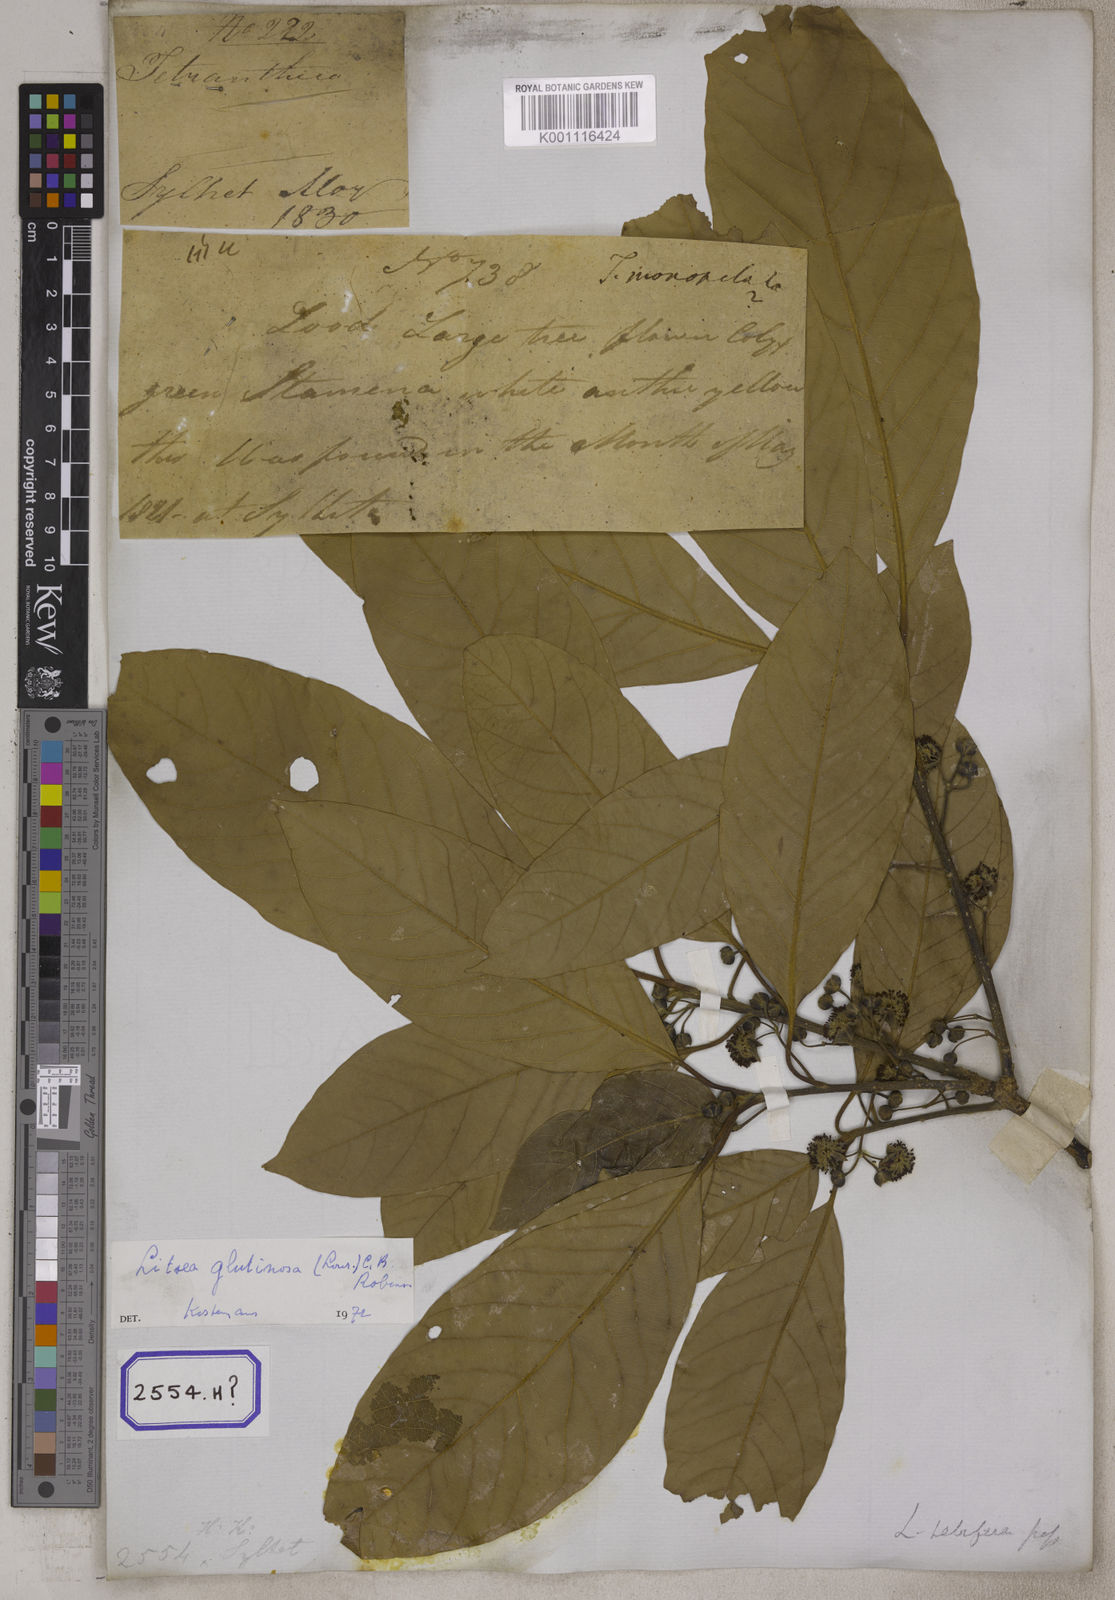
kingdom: Plantae
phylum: Tracheophyta
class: Magnoliopsida
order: Laurales
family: Lauraceae
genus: Litsea
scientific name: Litsea glutinosa
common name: Indian-laurel
